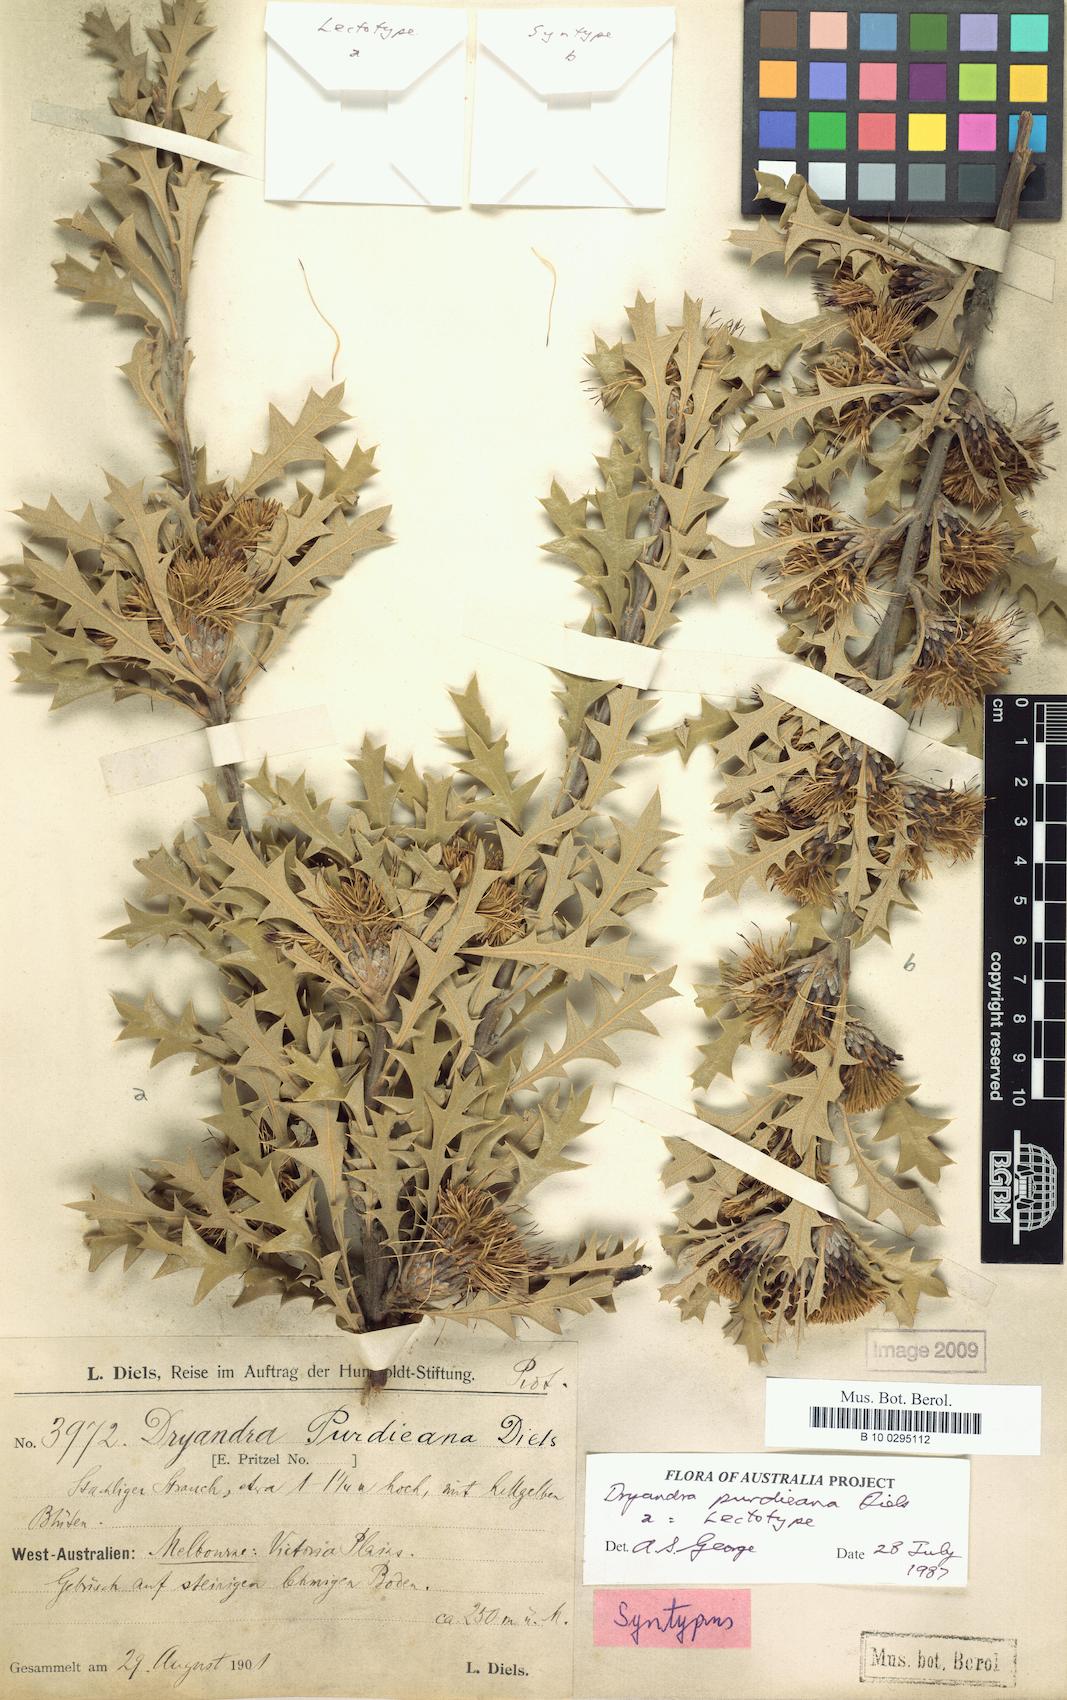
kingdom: Plantae
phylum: Tracheophyta
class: Magnoliopsida
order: Proteales
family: Proteaceae
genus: Banksia
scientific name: Banksia purdieana
